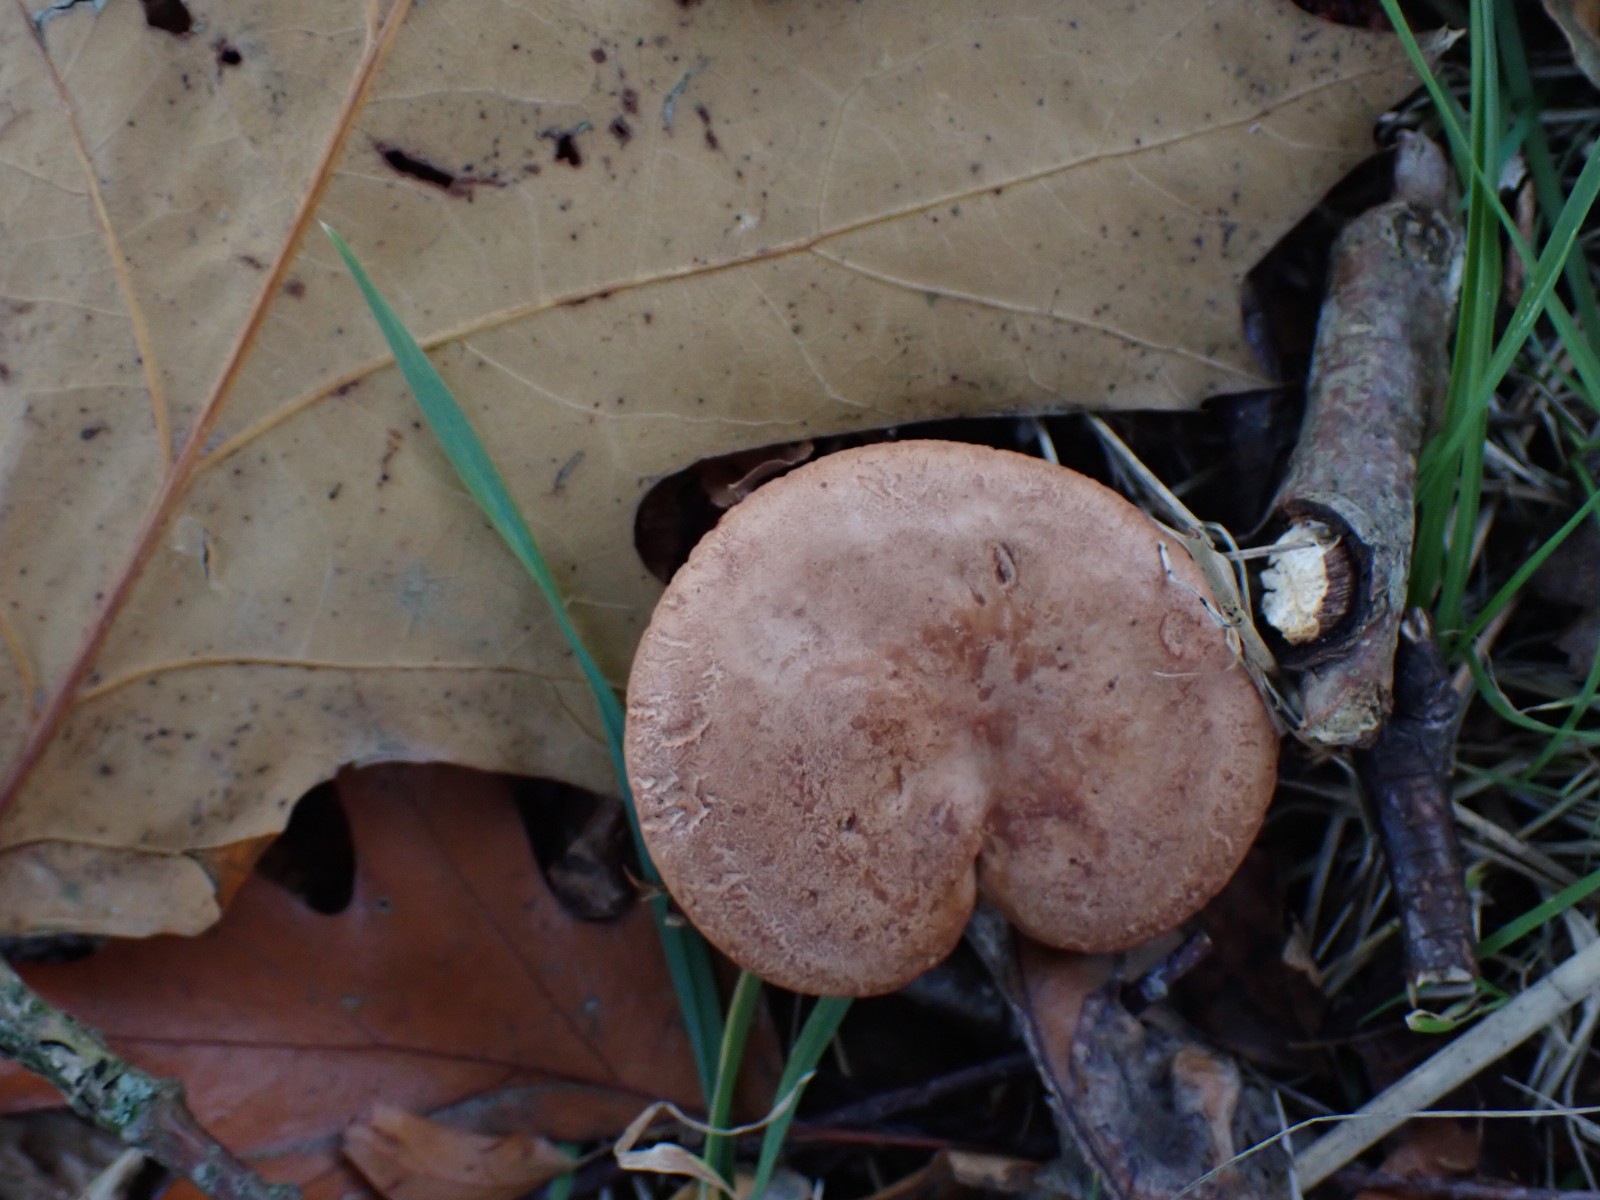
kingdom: Fungi
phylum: Basidiomycota
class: Agaricomycetes
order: Russulales
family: Russulaceae
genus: Lactarius
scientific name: Lactarius quietus
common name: ege-mælkehat
